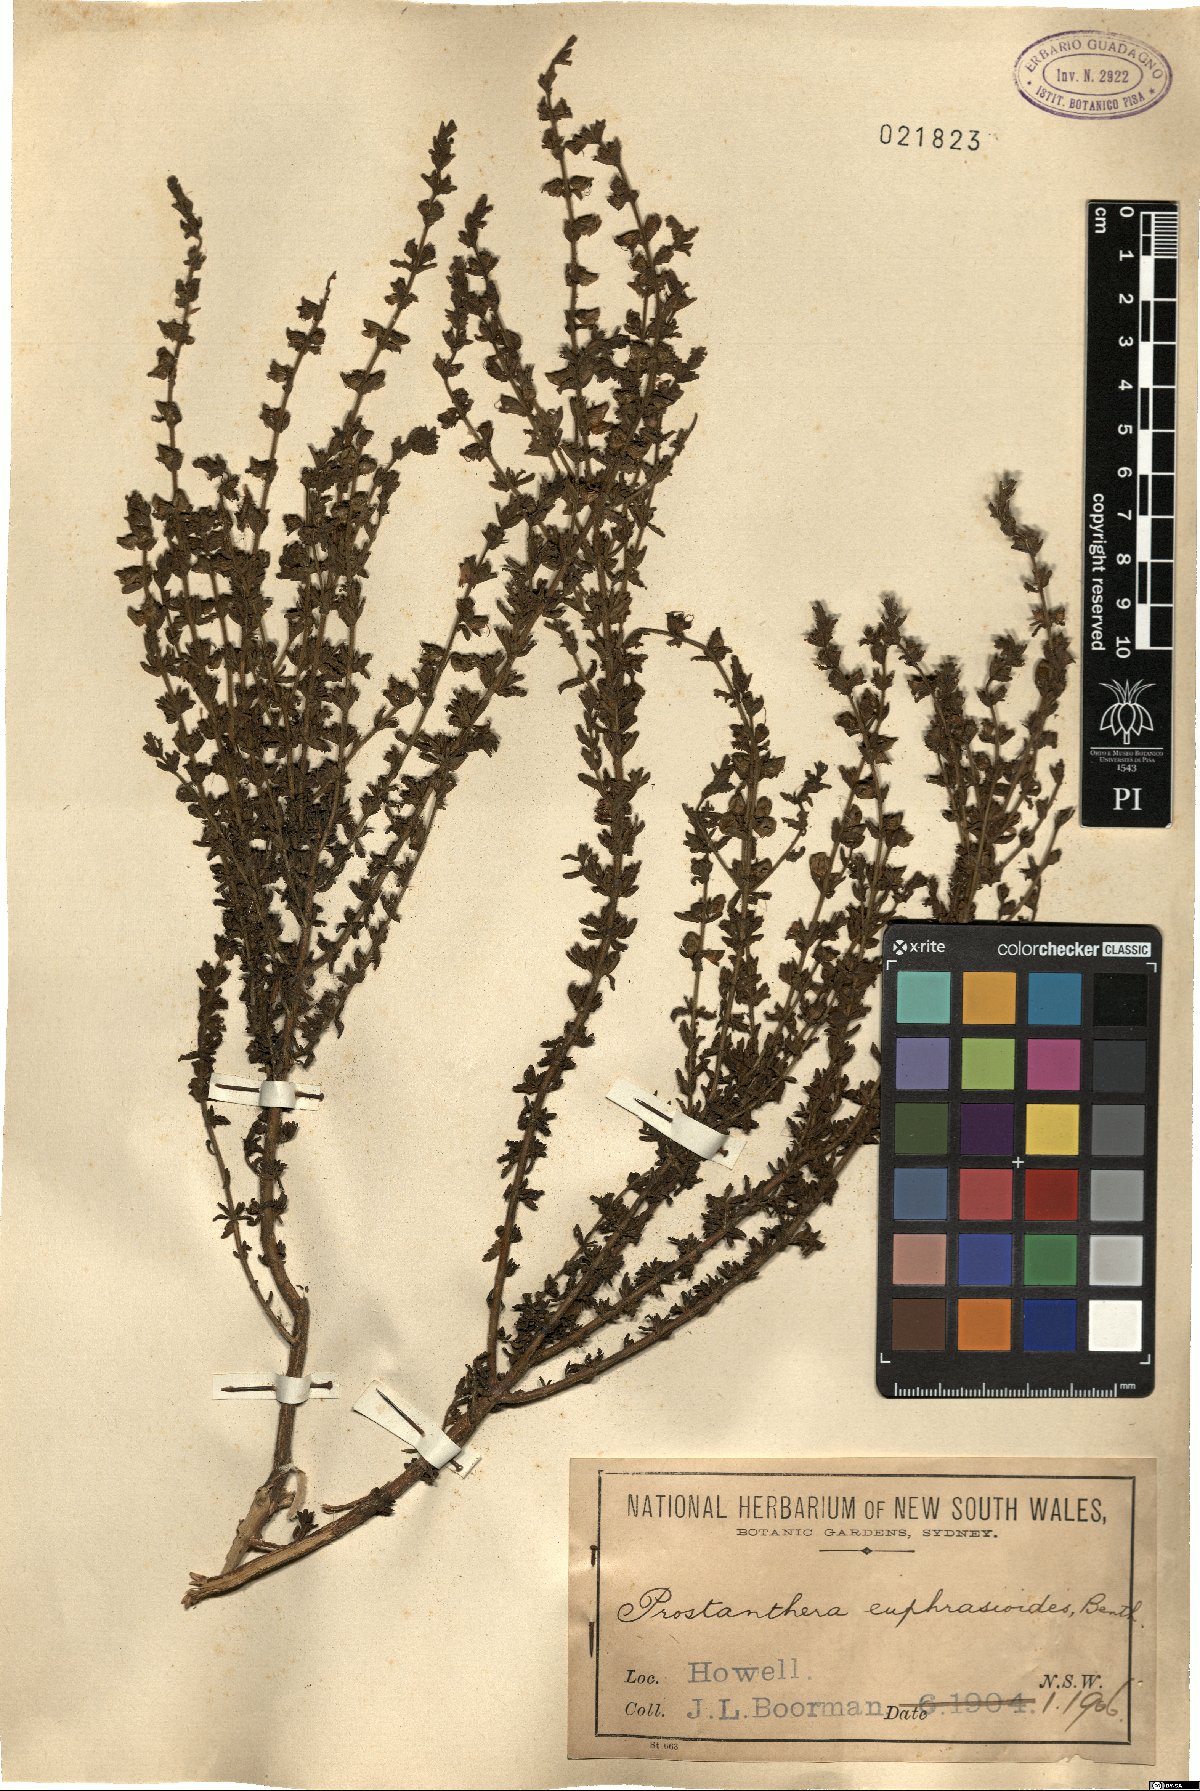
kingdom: Plantae
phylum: Tracheophyta
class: Magnoliopsida
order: Lamiales
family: Lamiaceae
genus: Prostanthera
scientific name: Prostanthera cryptandroides
